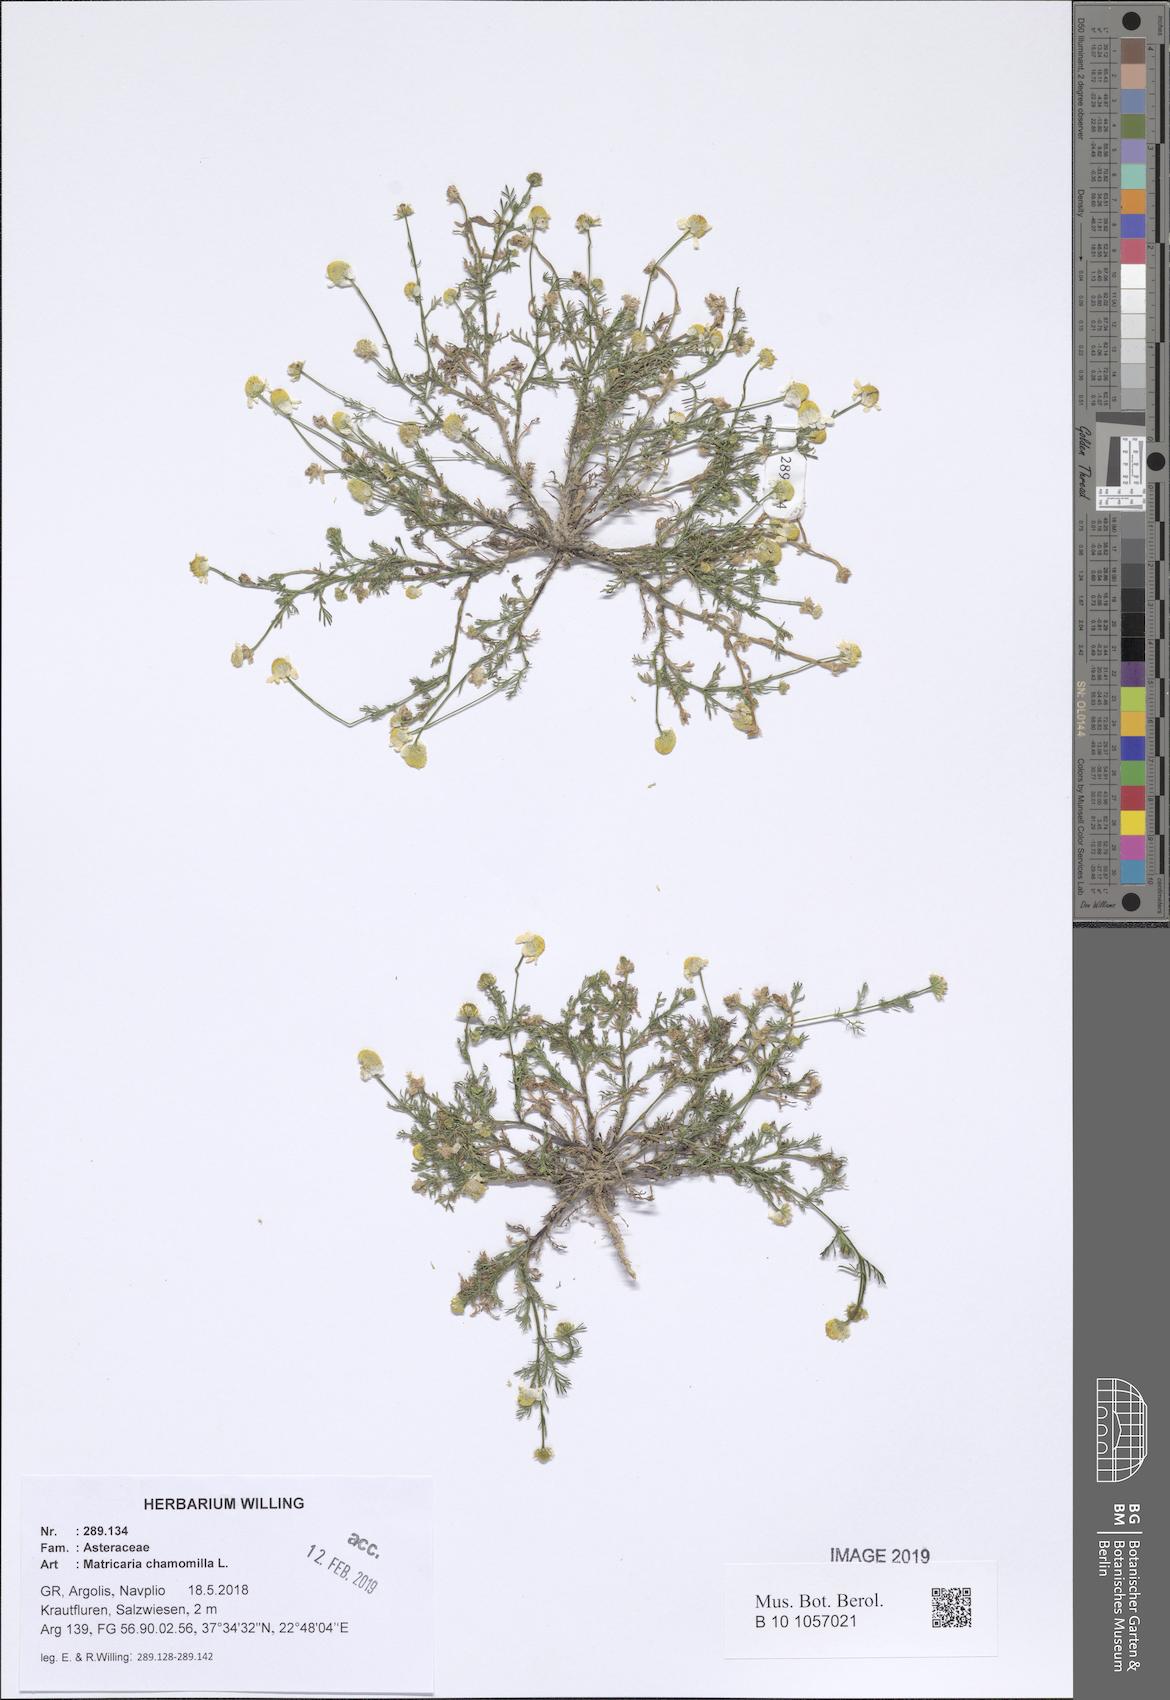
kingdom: Plantae
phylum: Tracheophyta
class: Magnoliopsida
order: Asterales
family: Asteraceae
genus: Matricaria
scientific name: Matricaria chamomilla
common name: Scented mayweed
